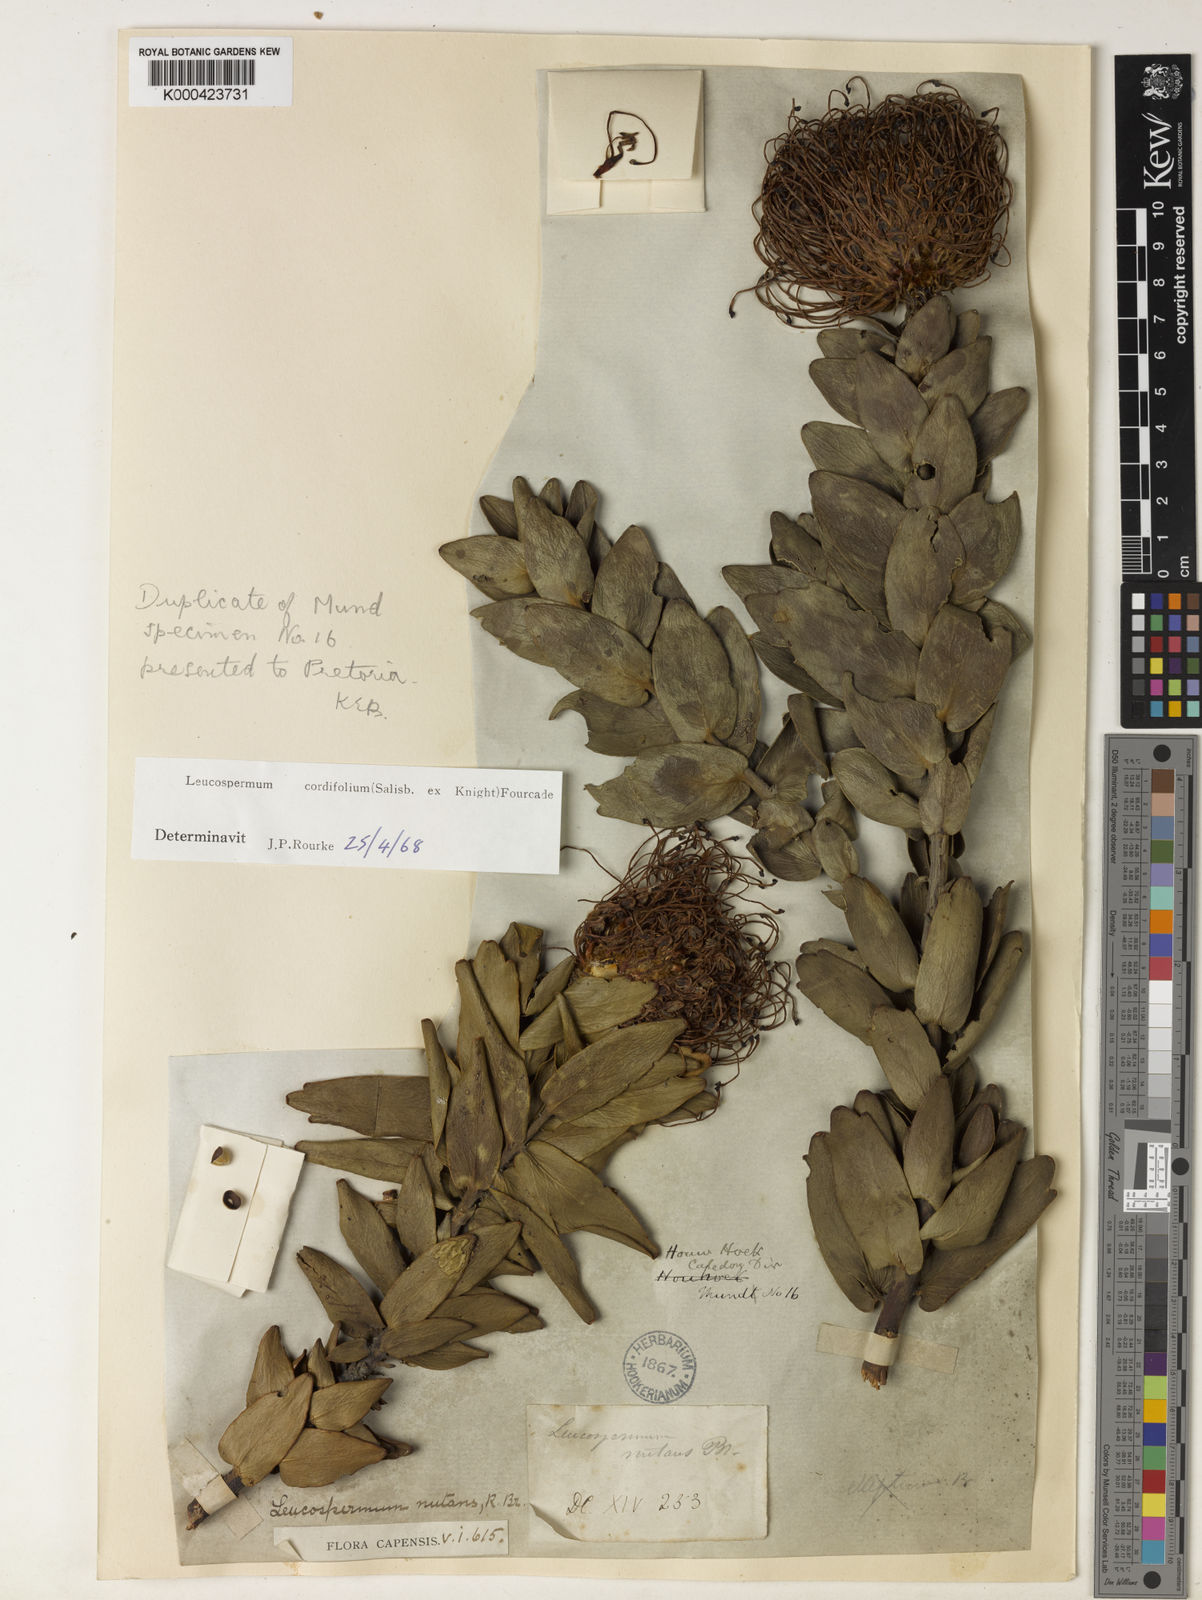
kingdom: Plantae
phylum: Tracheophyta
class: Magnoliopsida
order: Proteales
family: Proteaceae
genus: Leucospermum
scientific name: Leucospermum cordifolium
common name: Red pincushion-protea
